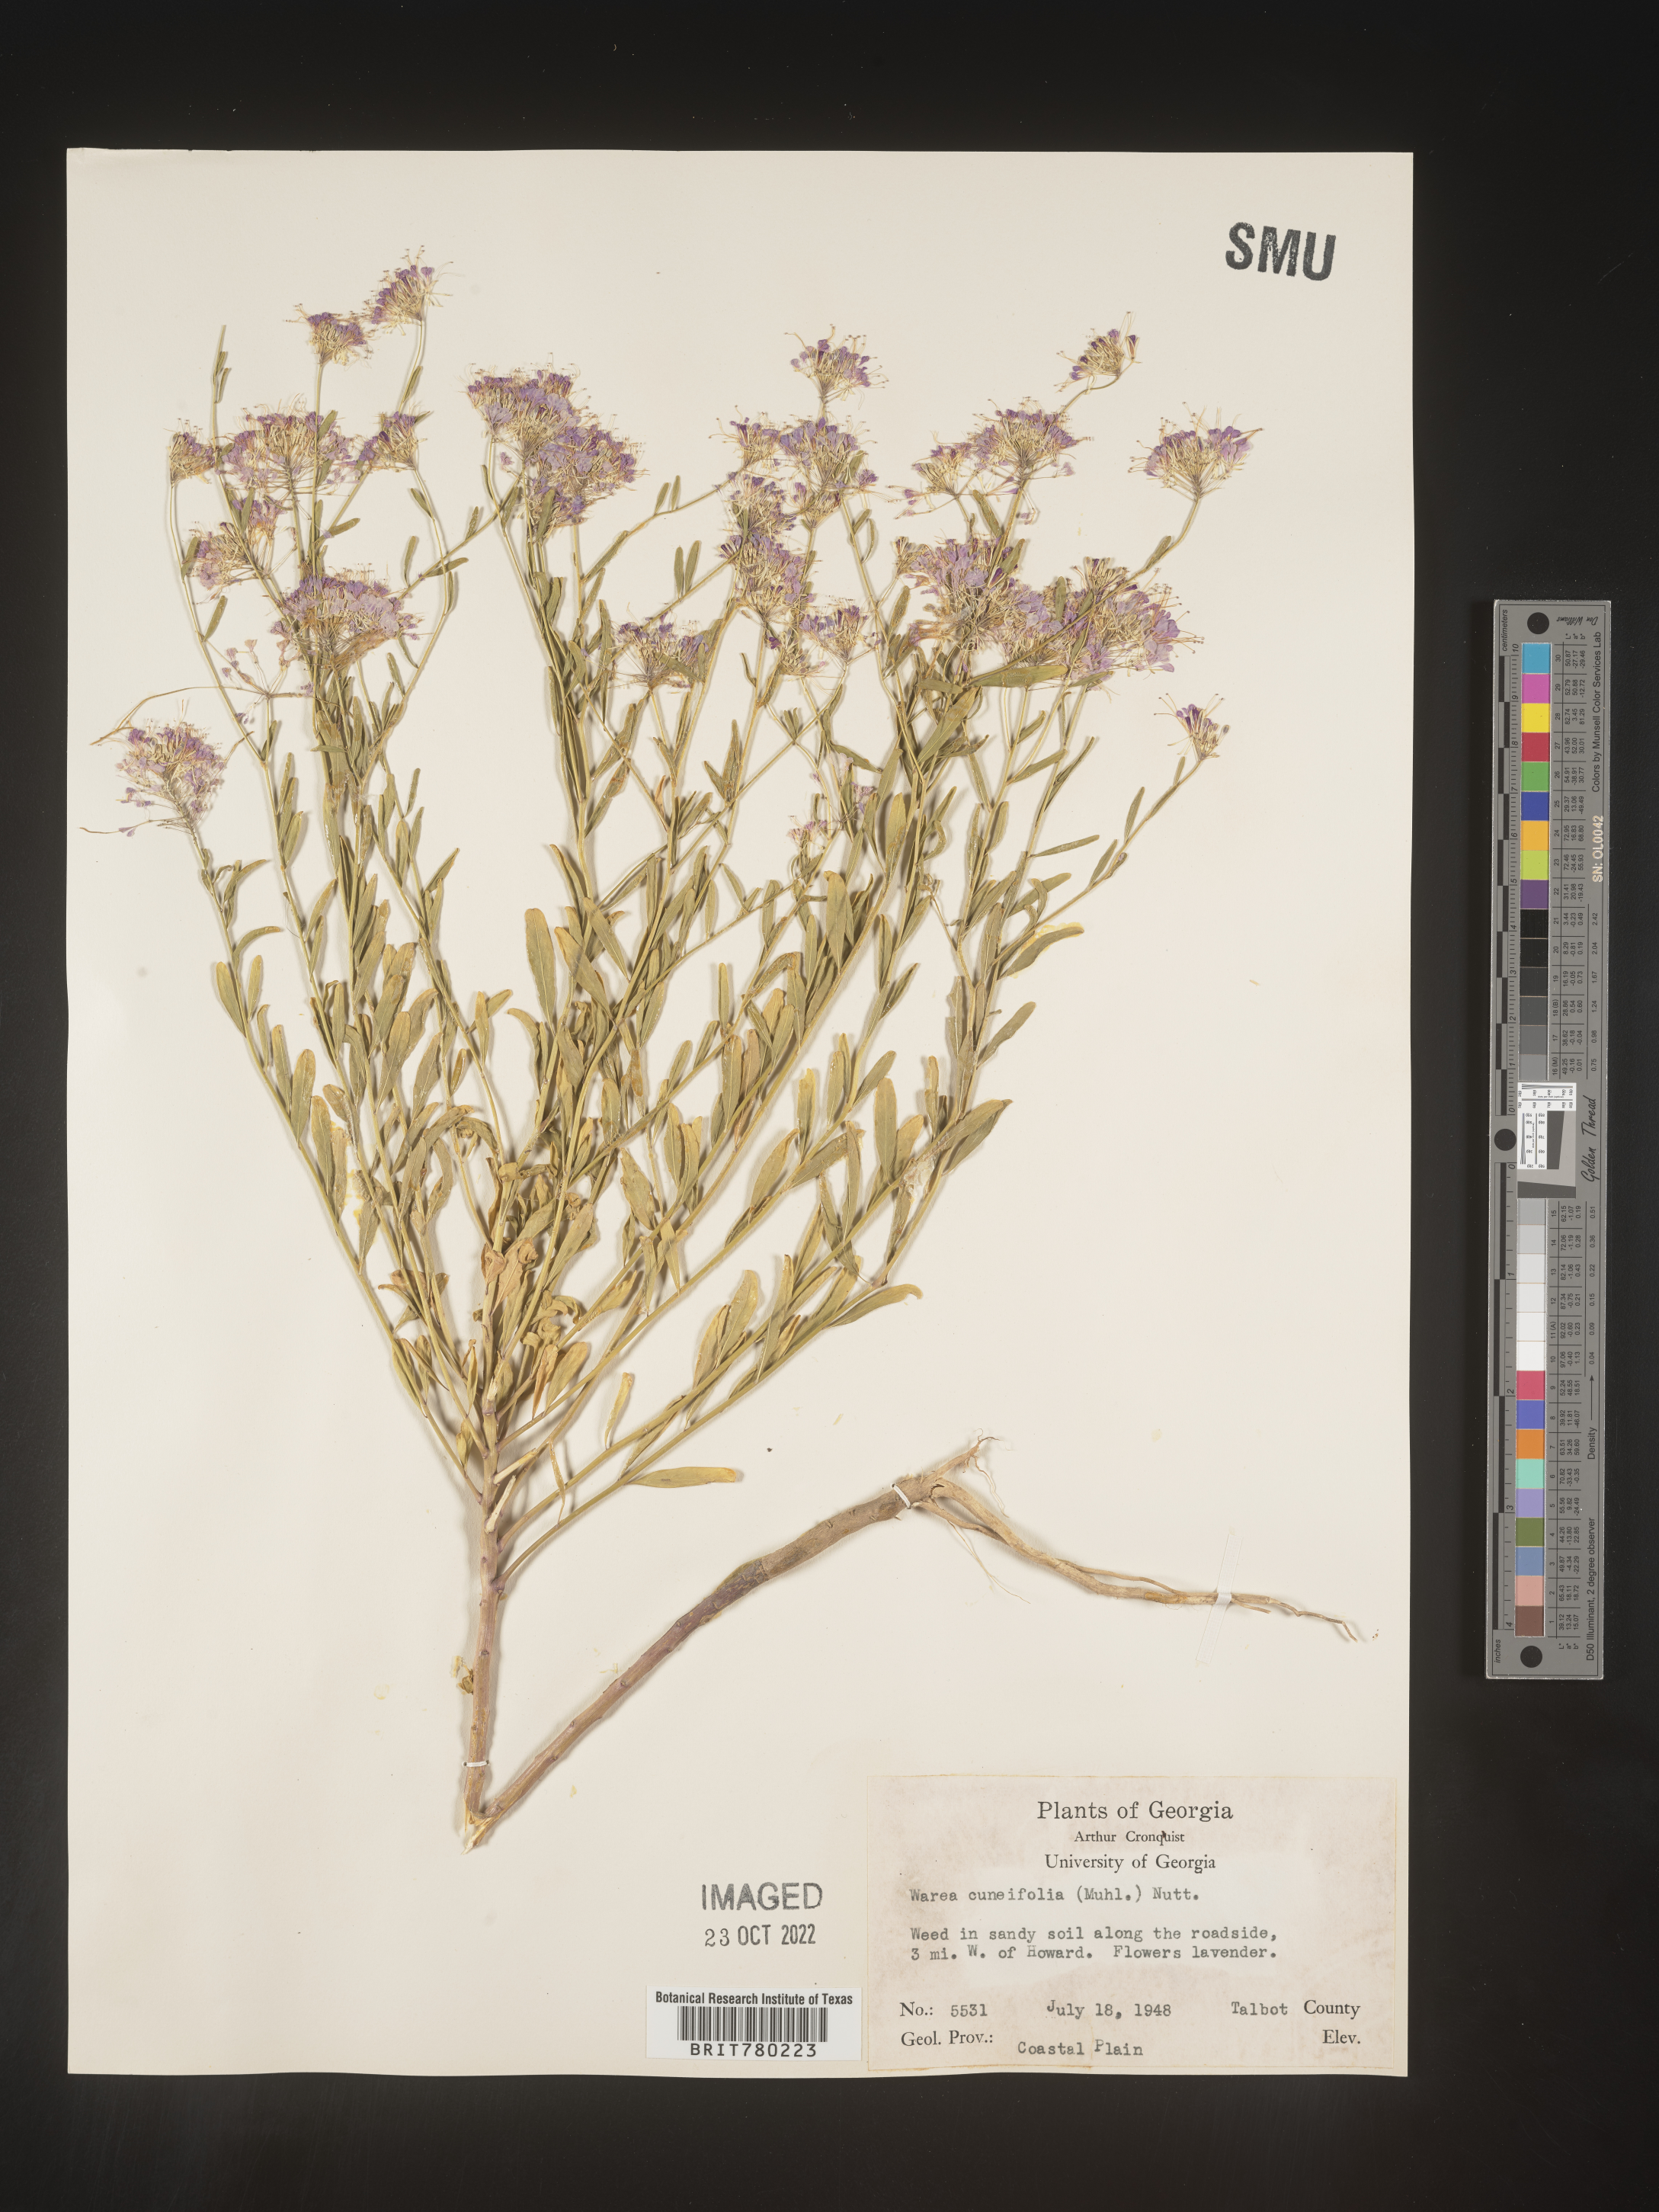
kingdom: Plantae
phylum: Tracheophyta
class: Magnoliopsida
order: Brassicales
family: Brassicaceae
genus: Warea
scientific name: Warea
